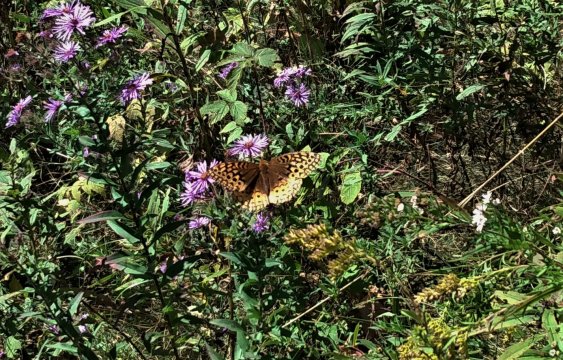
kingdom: Animalia
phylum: Arthropoda
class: Insecta
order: Lepidoptera
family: Nymphalidae
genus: Speyeria
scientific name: Speyeria cybele
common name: Great Spangled Fritillary
